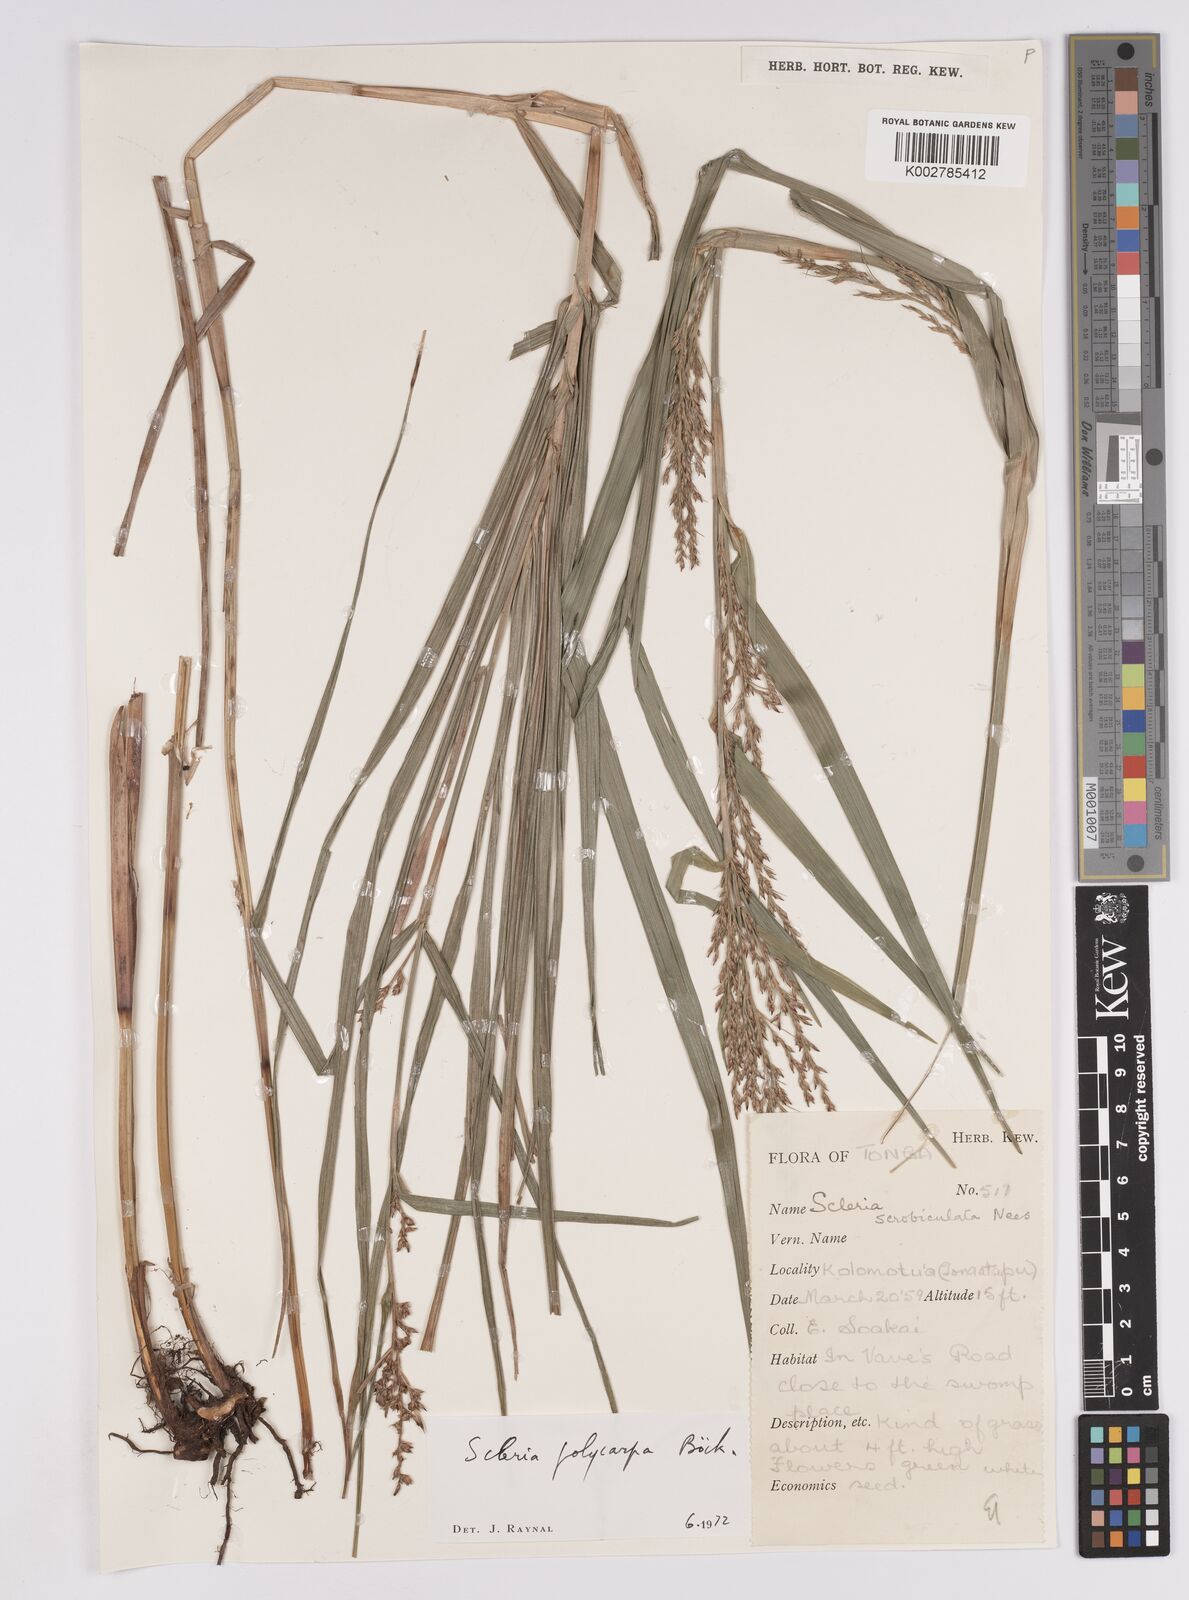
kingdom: Plantae
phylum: Tracheophyta
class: Liliopsida
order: Poales
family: Cyperaceae
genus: Scleria
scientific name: Scleria polycarpa
